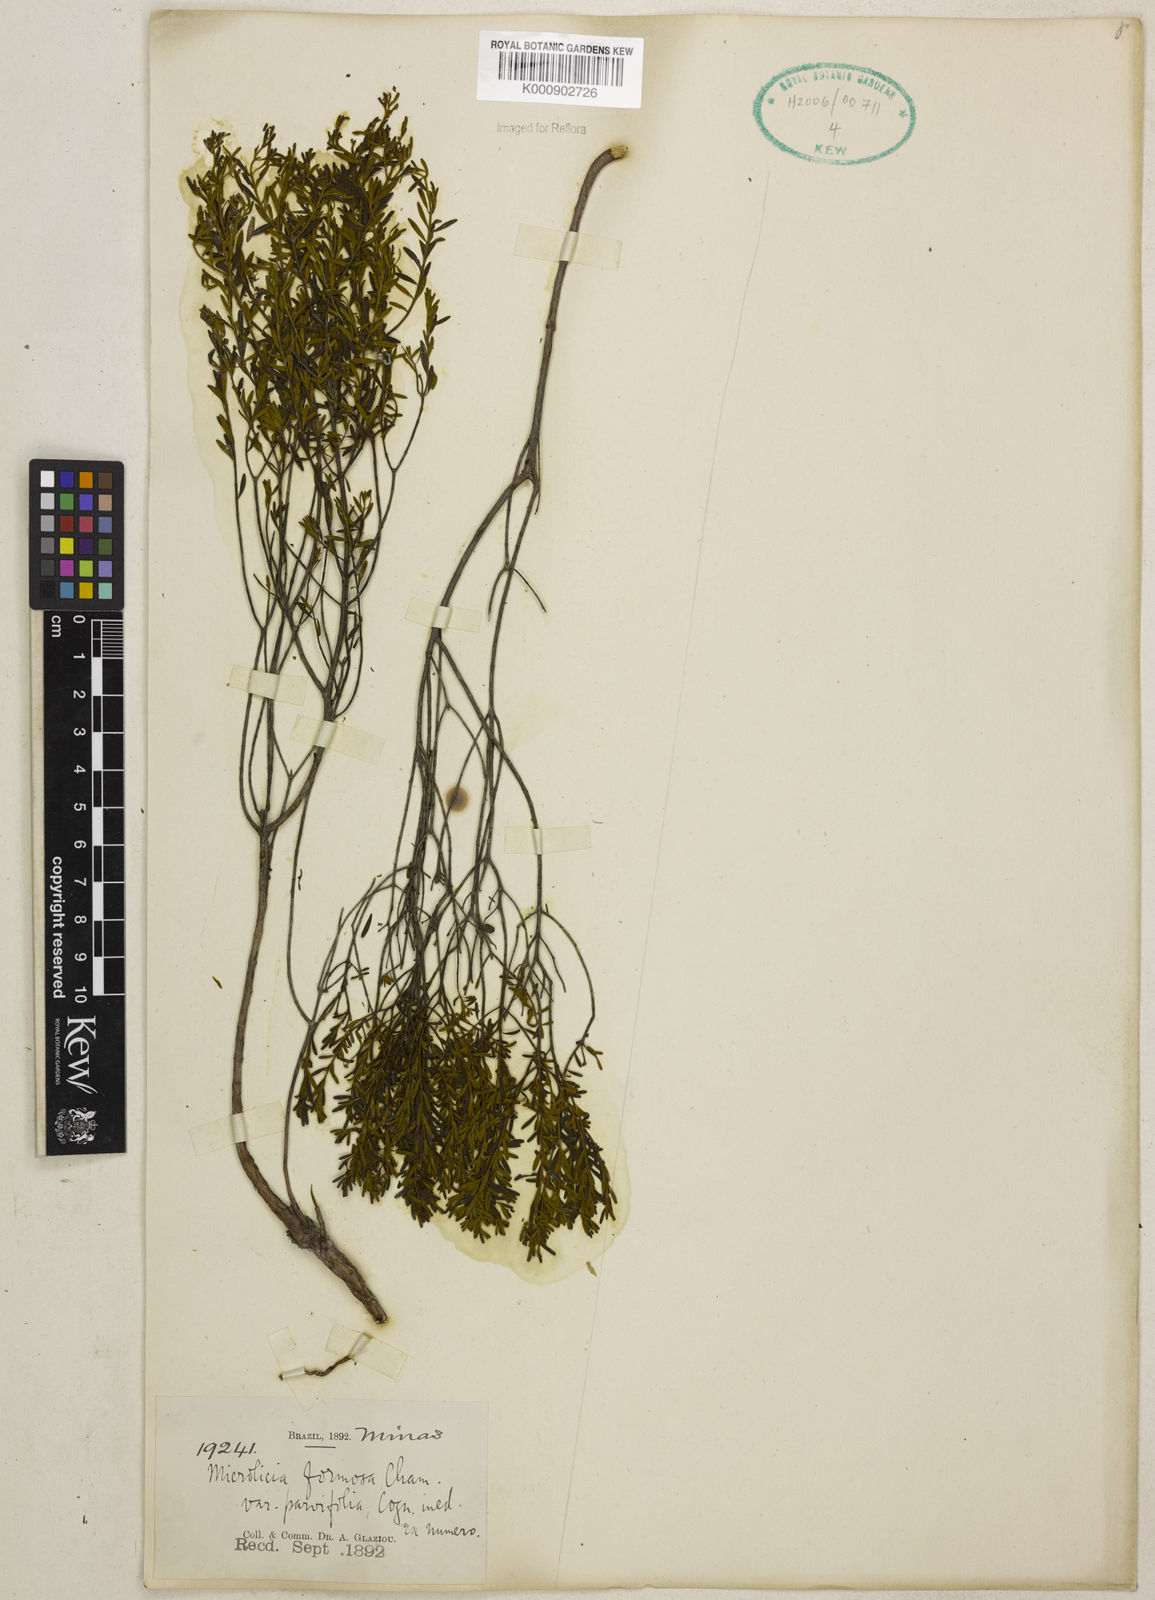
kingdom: Plantae
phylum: Tracheophyta
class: Magnoliopsida
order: Myrtales
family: Melastomataceae
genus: Microlicia
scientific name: Microlicia formosa
